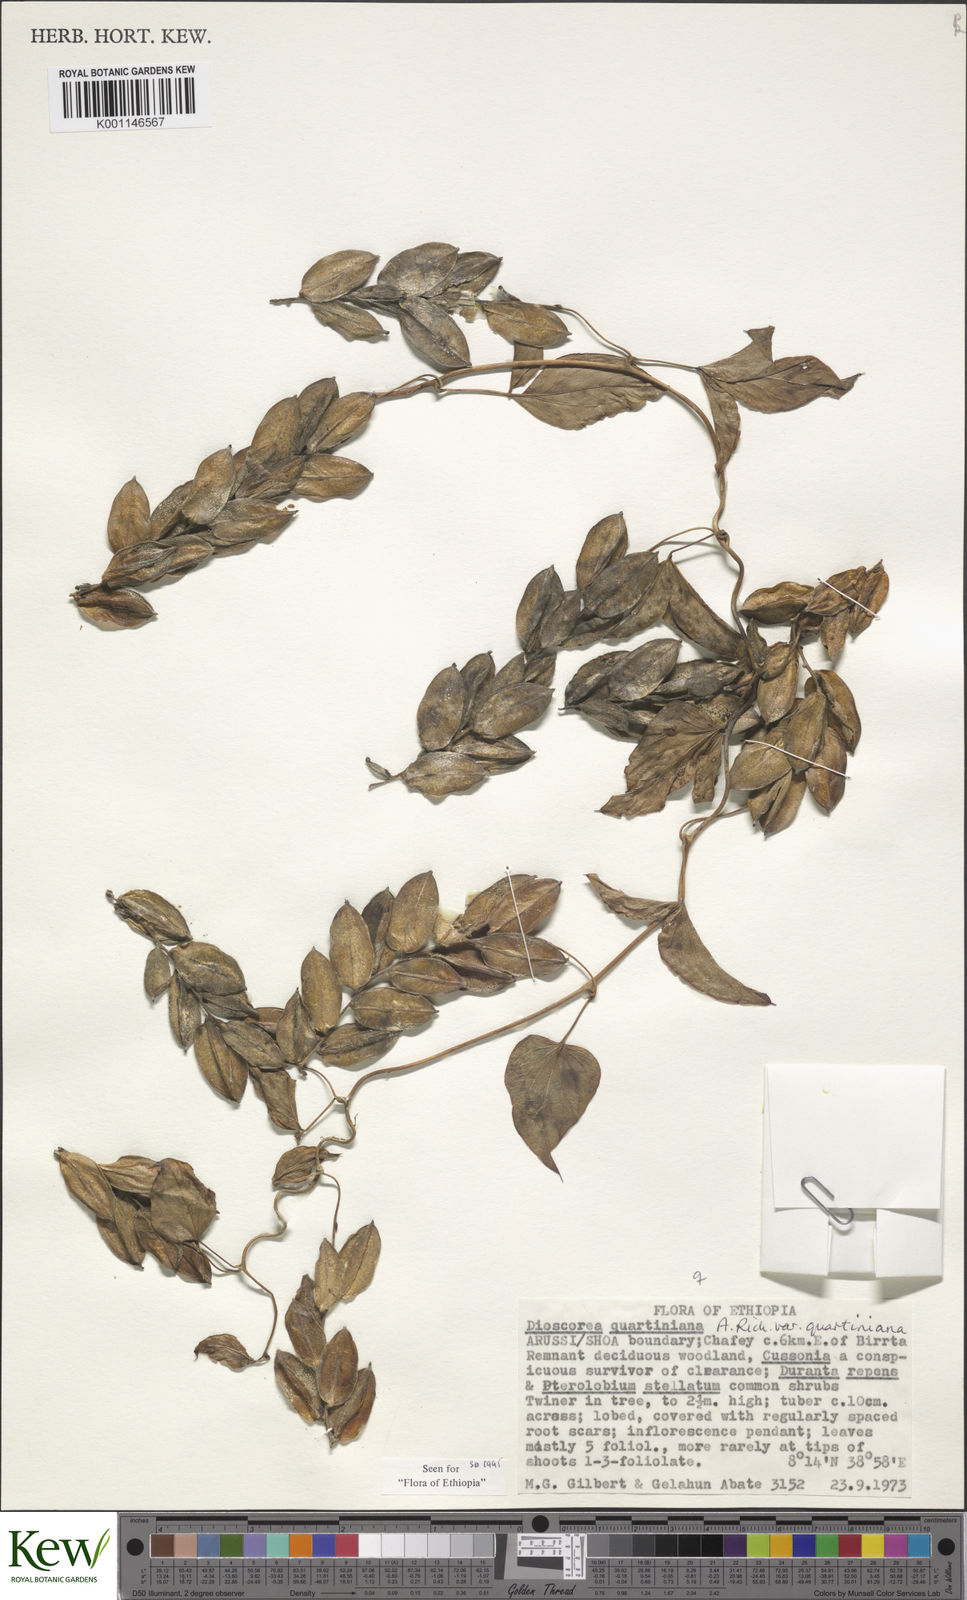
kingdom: Plantae
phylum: Tracheophyta
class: Liliopsida
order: Dioscoreales
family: Dioscoreaceae
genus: Dioscorea
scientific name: Dioscorea quartiniana
